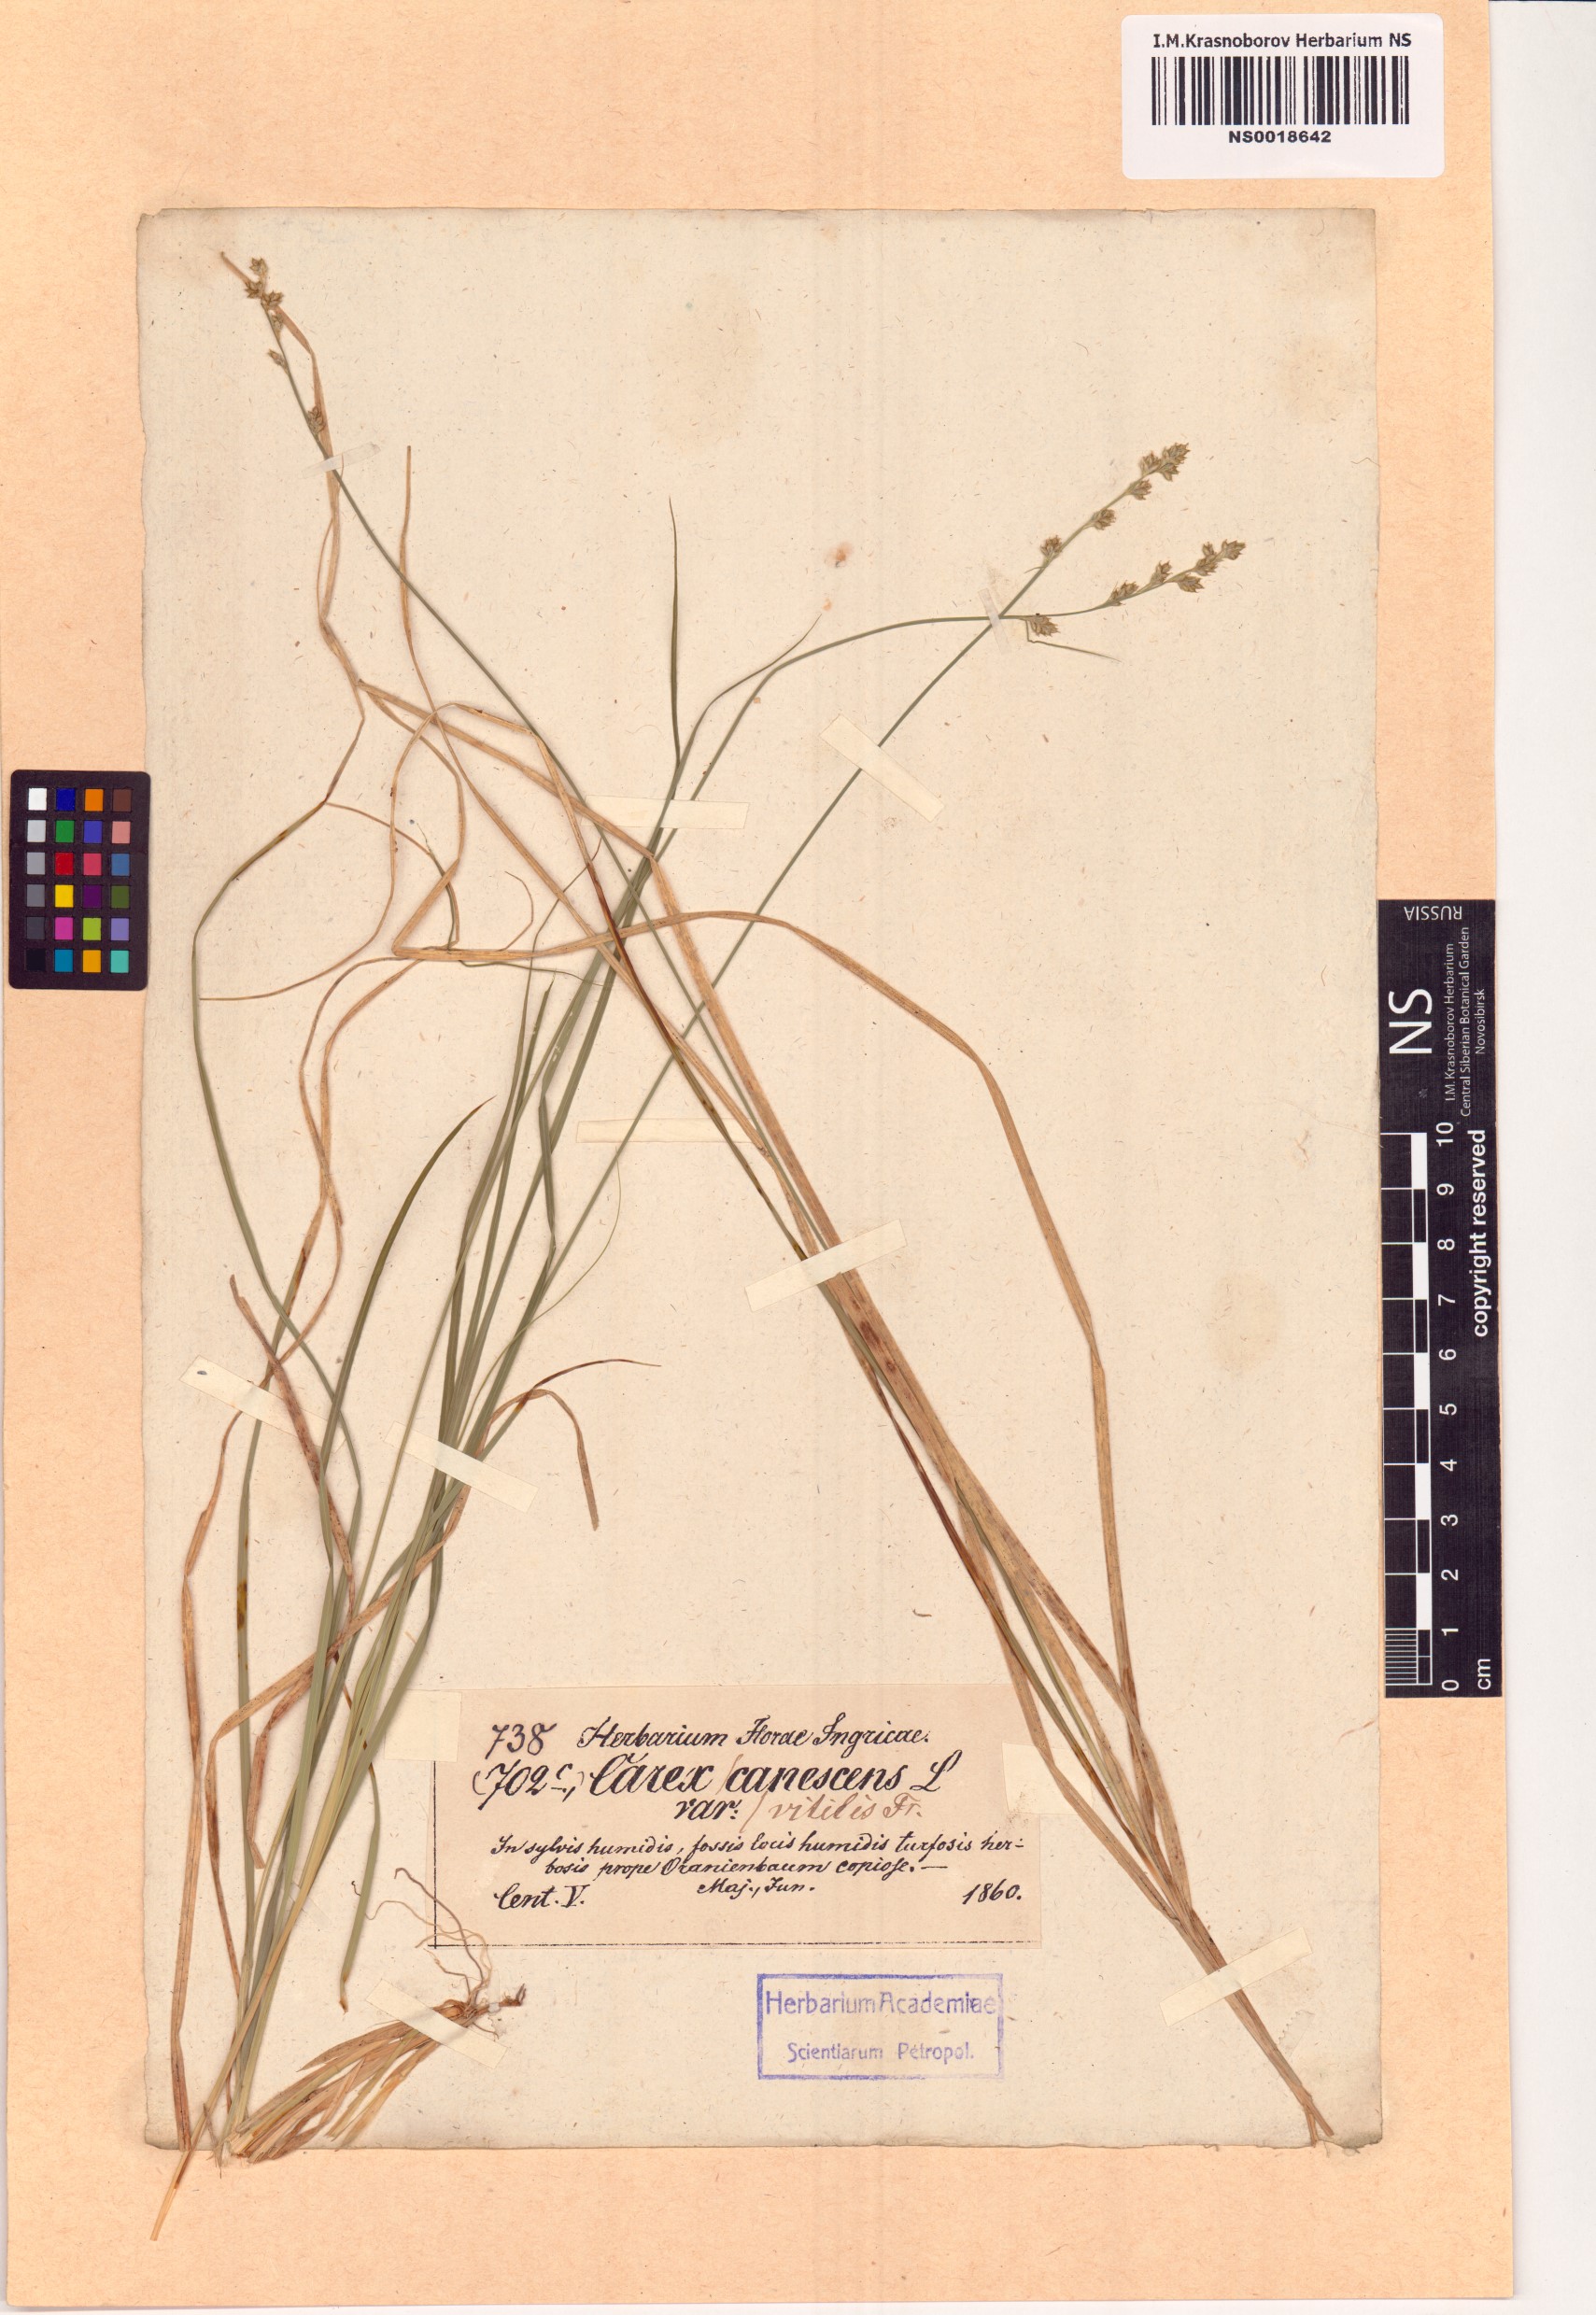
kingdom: Plantae
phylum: Tracheophyta
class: Liliopsida
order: Poales
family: Cyperaceae
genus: Carex
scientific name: Carex brunnescens
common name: Brown sedge
